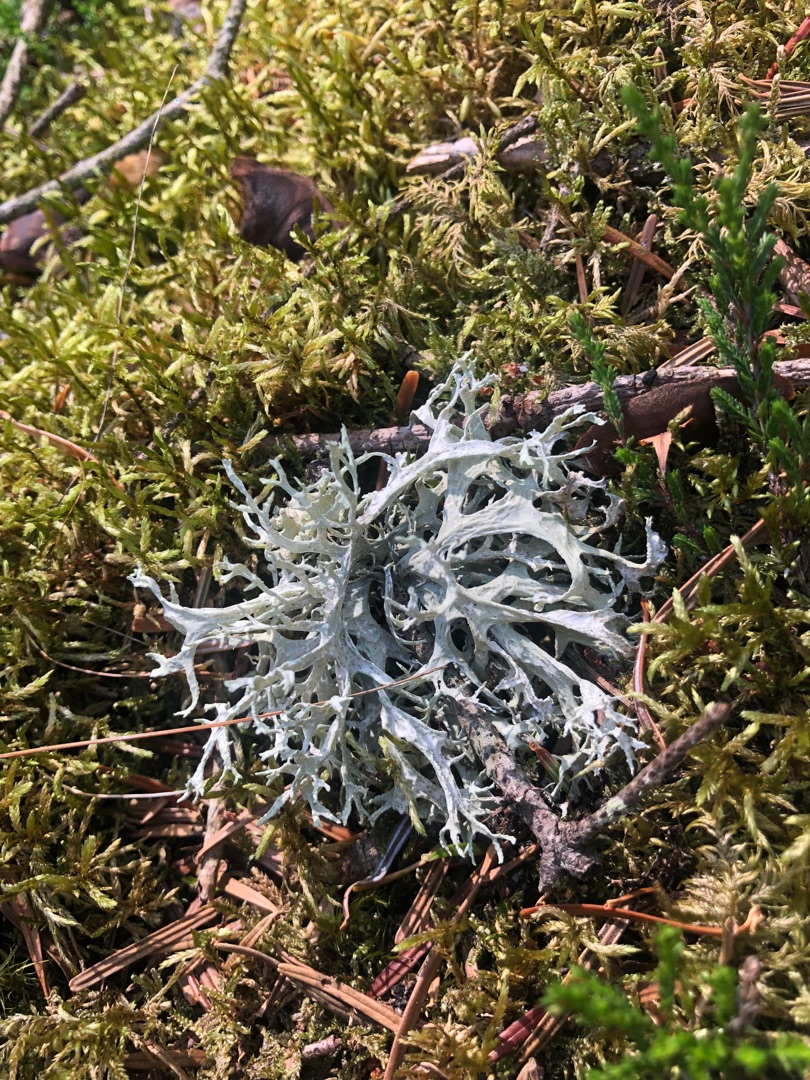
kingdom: Fungi
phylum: Ascomycota
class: Lecanoromycetes
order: Lecanorales
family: Parmeliaceae
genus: Evernia
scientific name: Evernia prunastri
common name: Almindelig slåenlav
